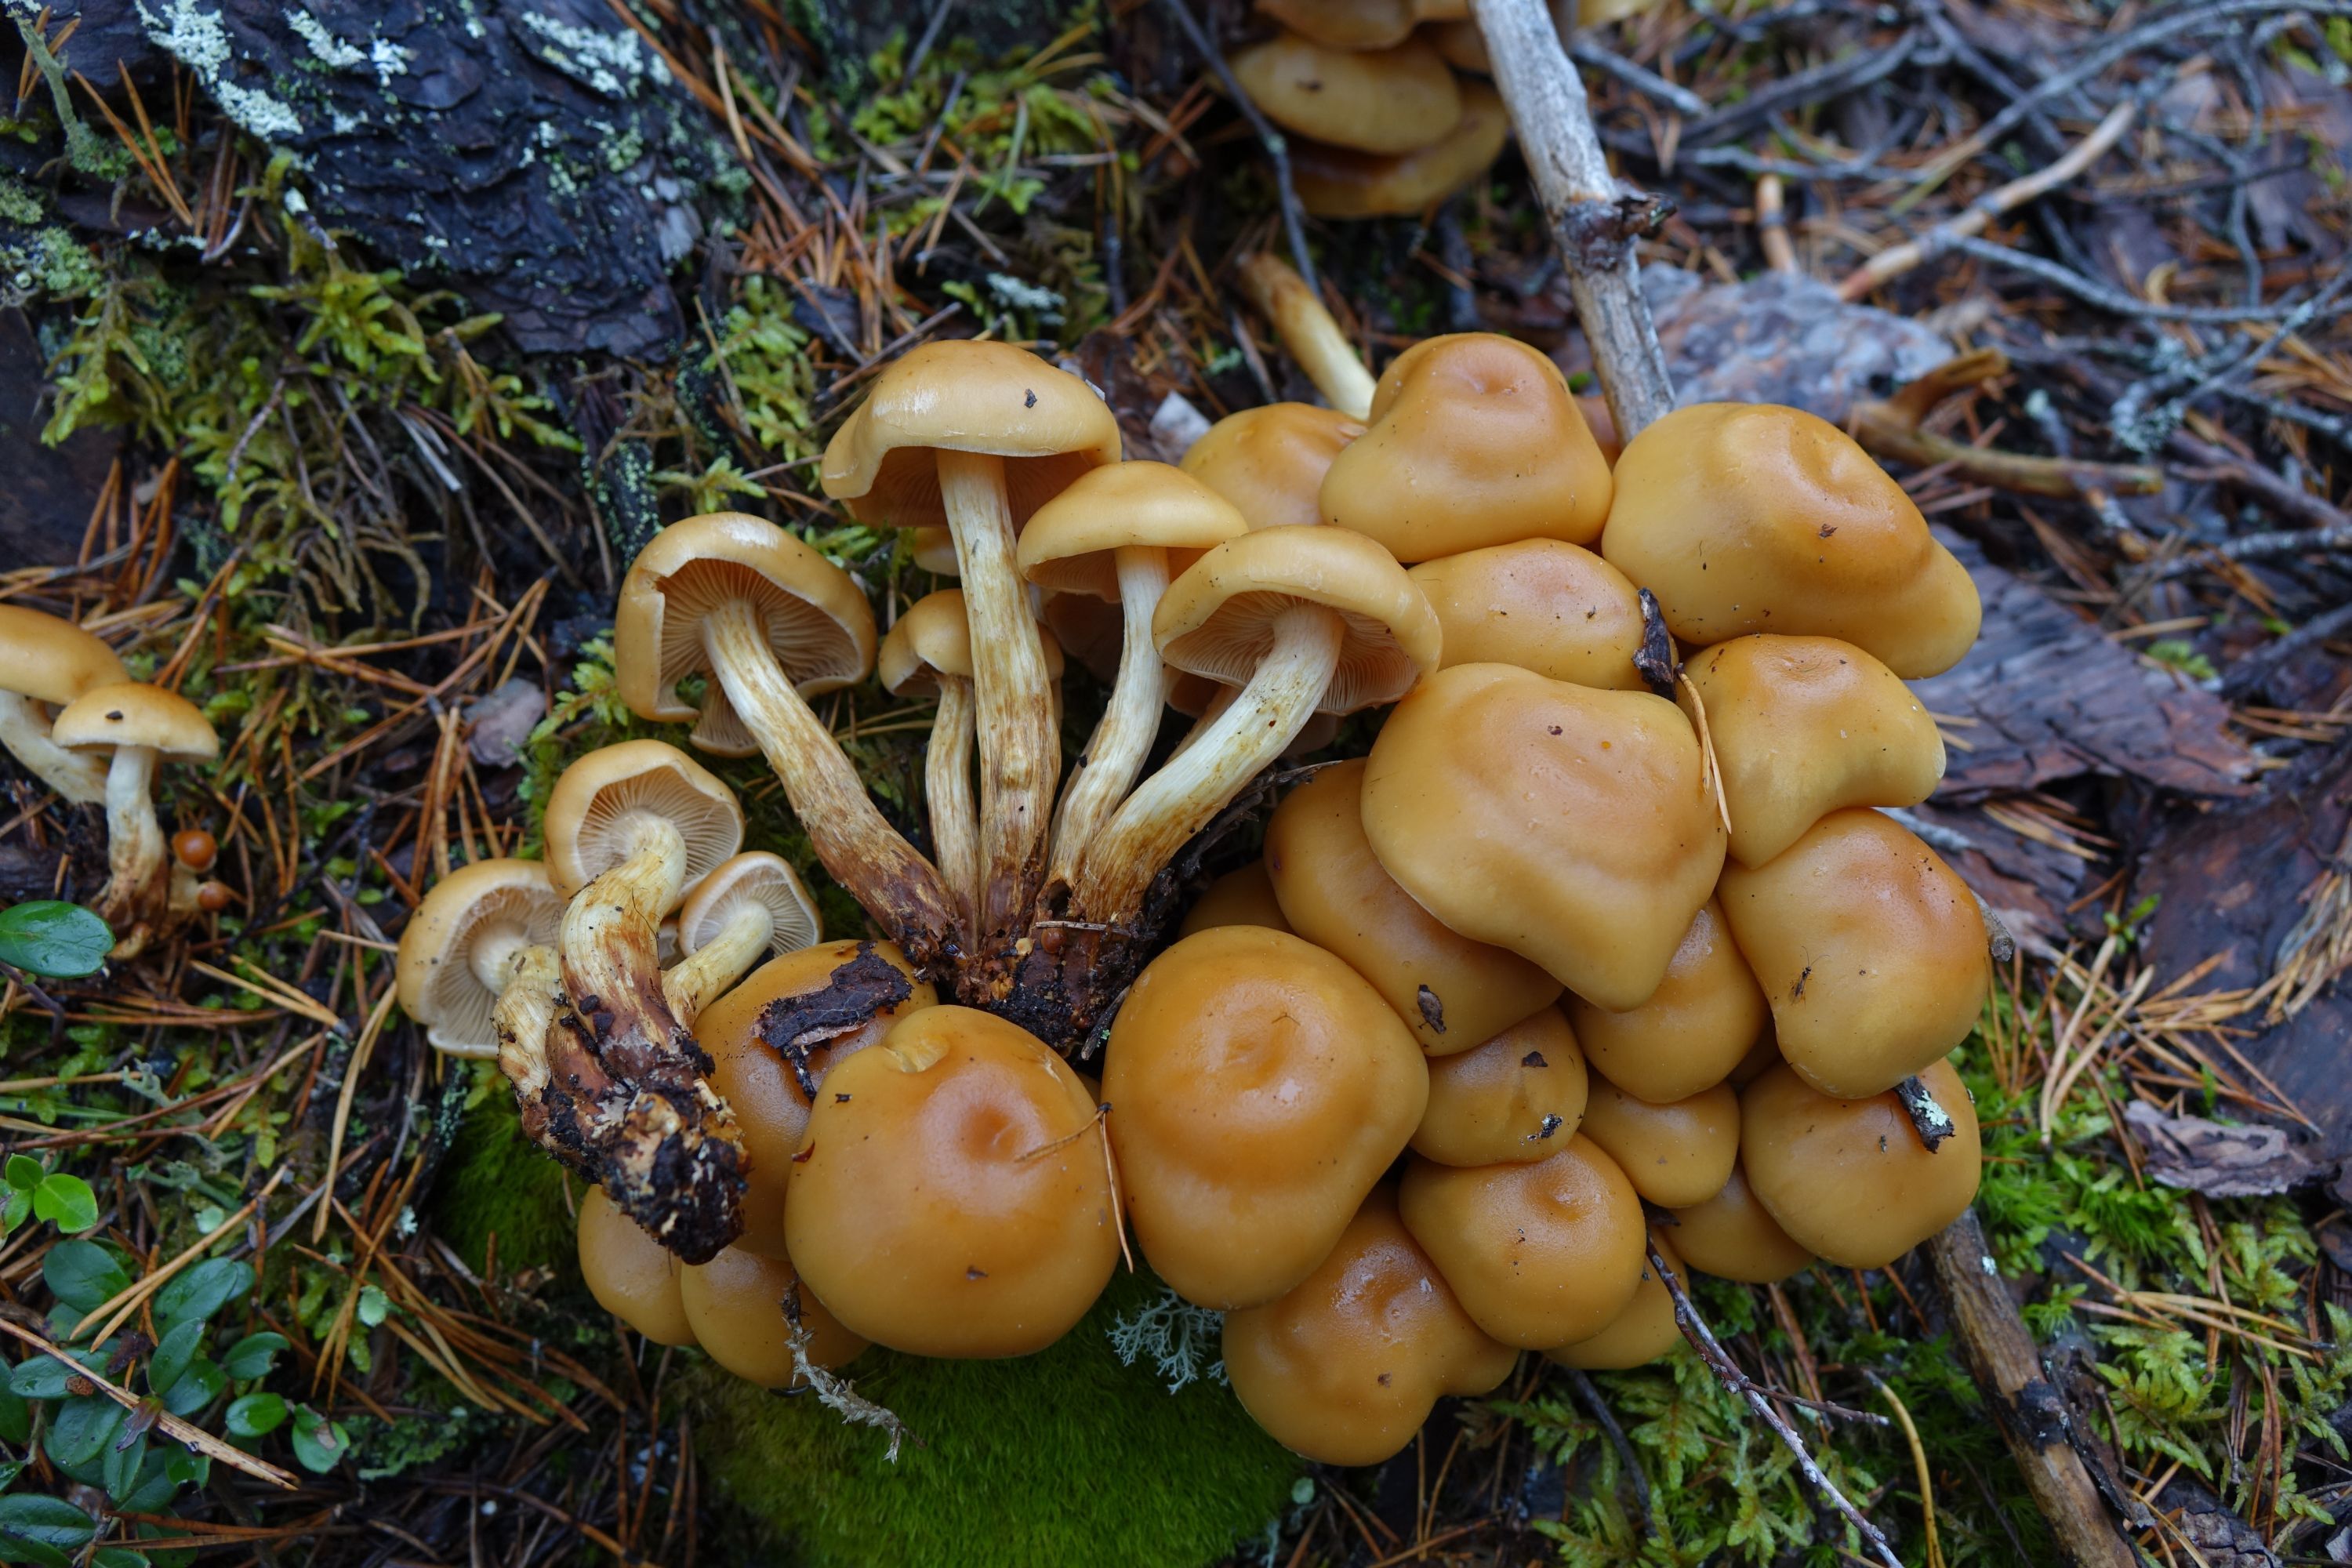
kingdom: Fungi
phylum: Basidiomycota
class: Agaricomycetes
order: Agaricales
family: Strophariaceae
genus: Hypholoma
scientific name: Hypholoma capnoides
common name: Conifer tuft
